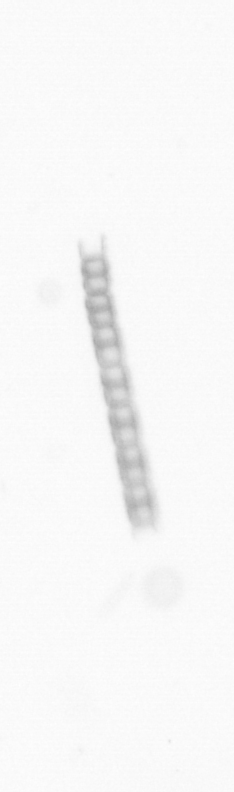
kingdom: Chromista
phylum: Ochrophyta
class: Bacillariophyceae
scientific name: Bacillariophyceae
